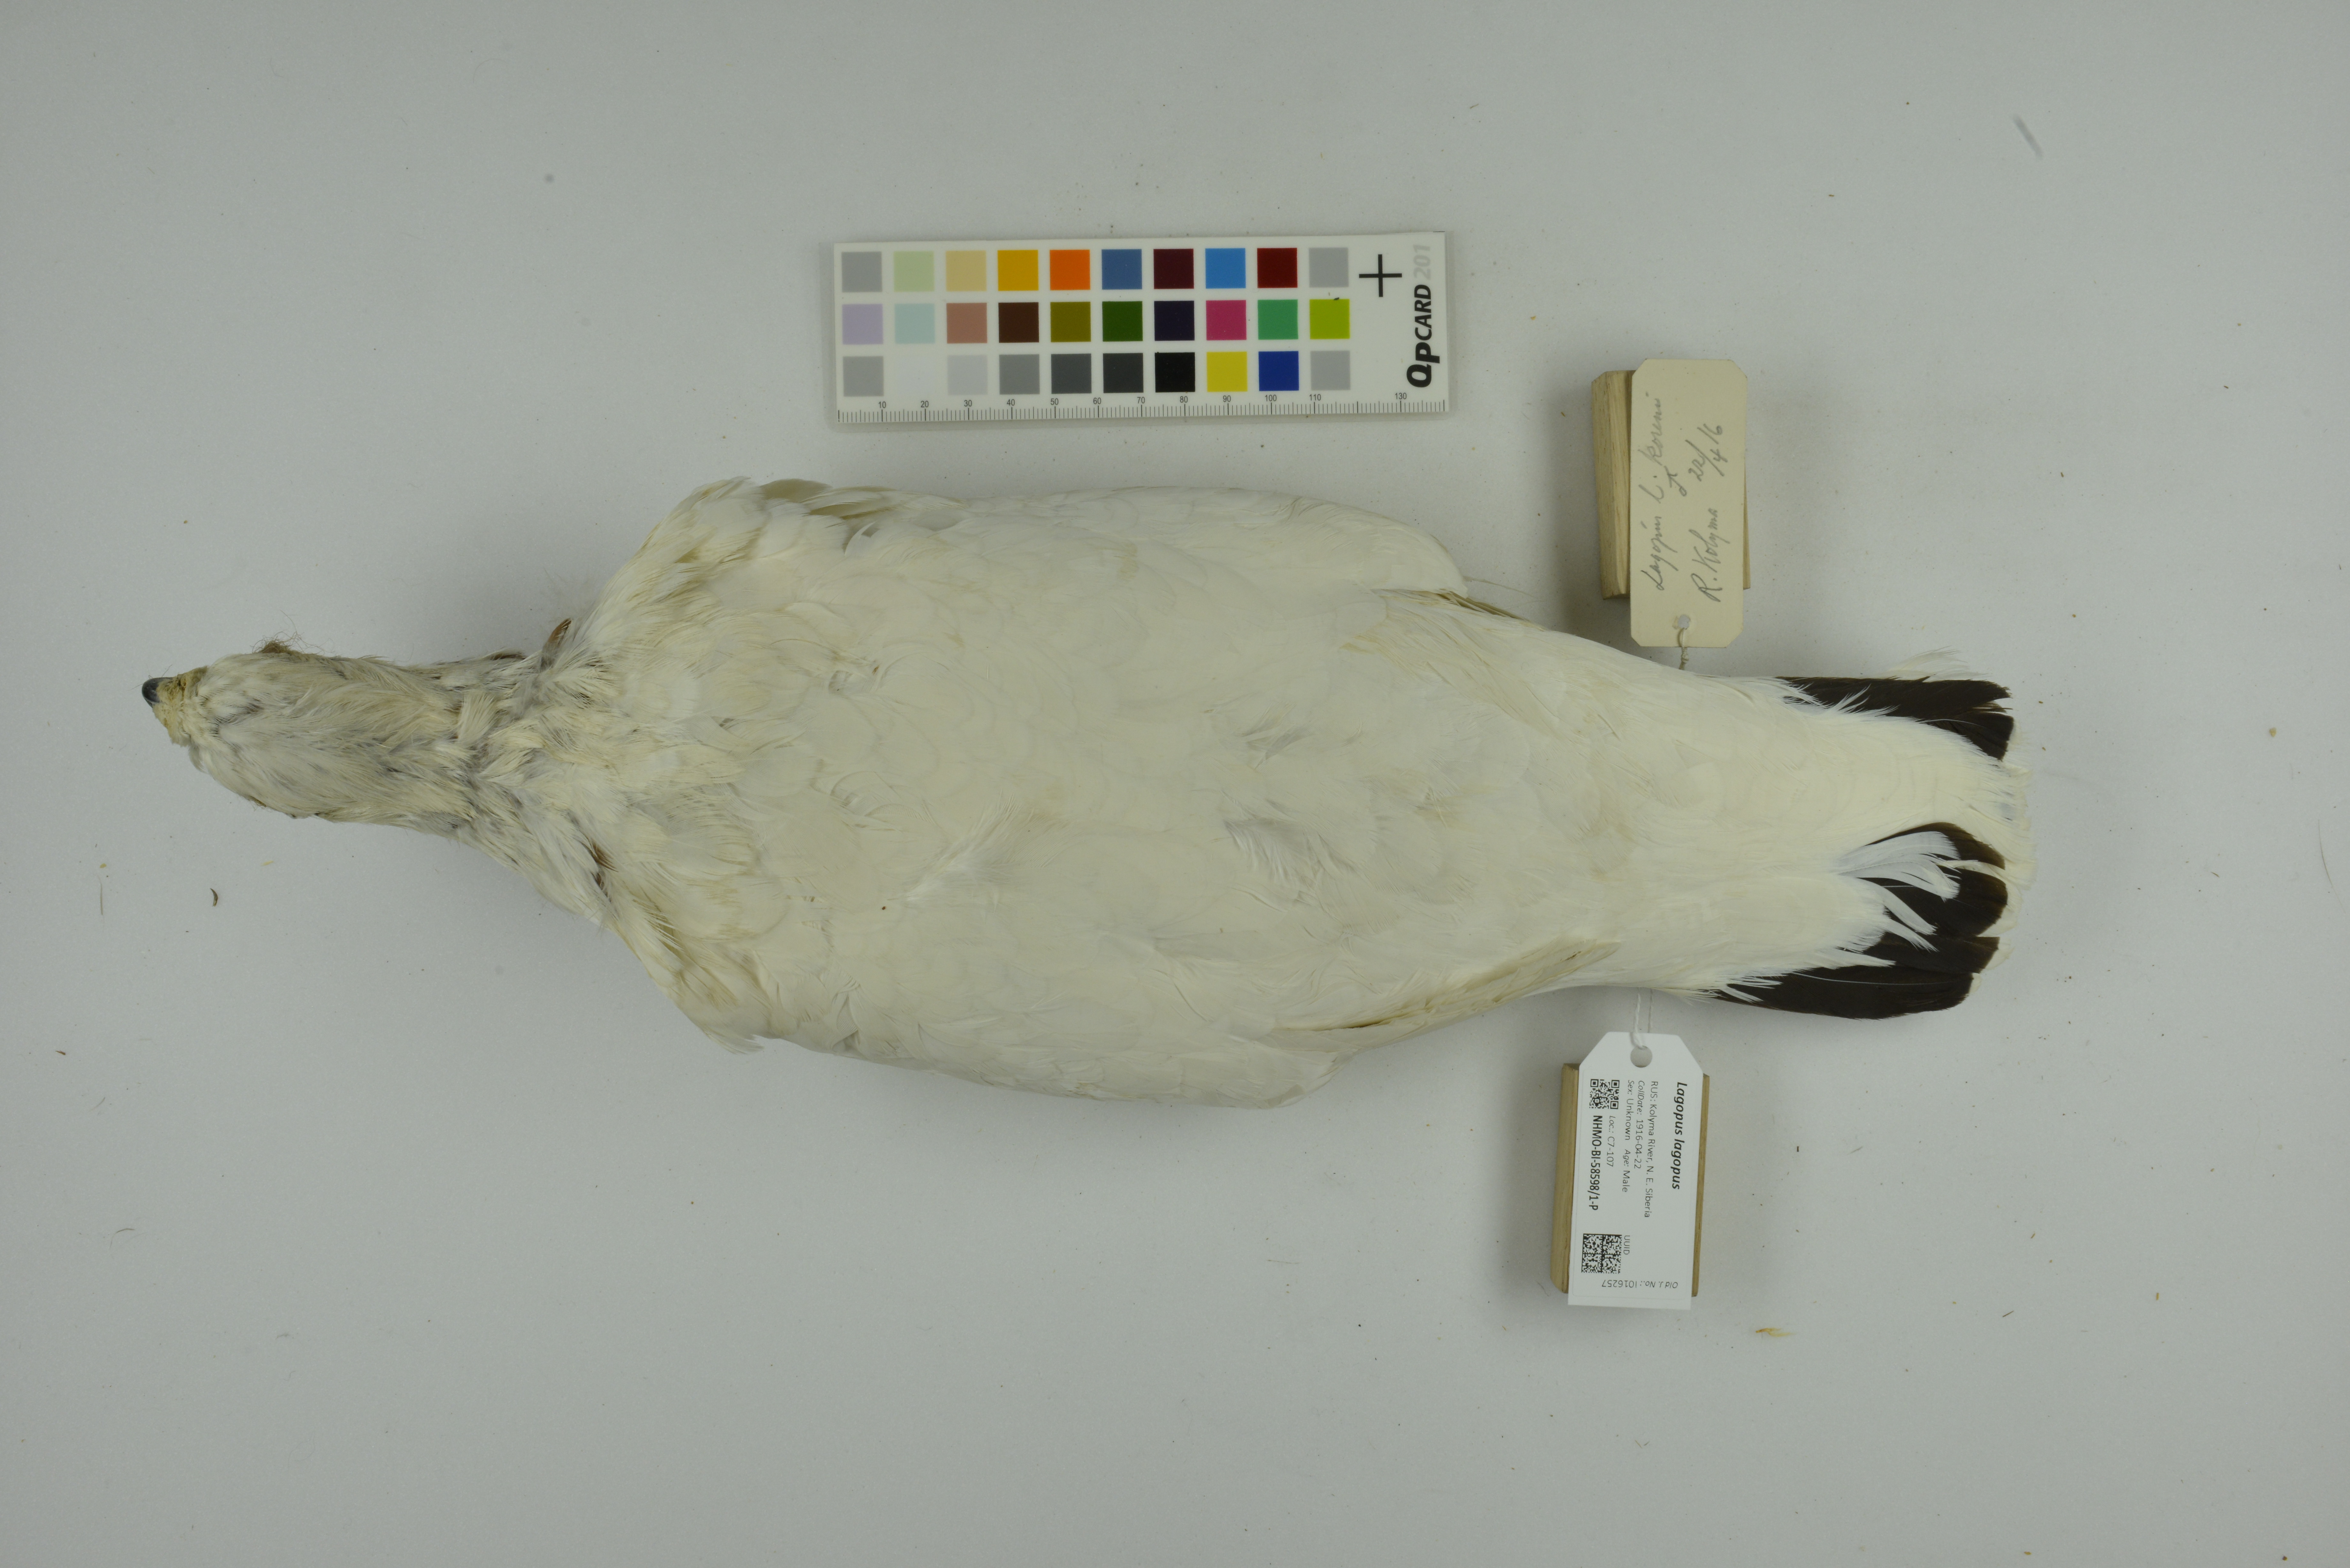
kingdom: Animalia
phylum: Chordata
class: Aves
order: Galliformes
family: Phasianidae
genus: Lagopus
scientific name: Lagopus lagopus
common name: Willow ptarmigan
